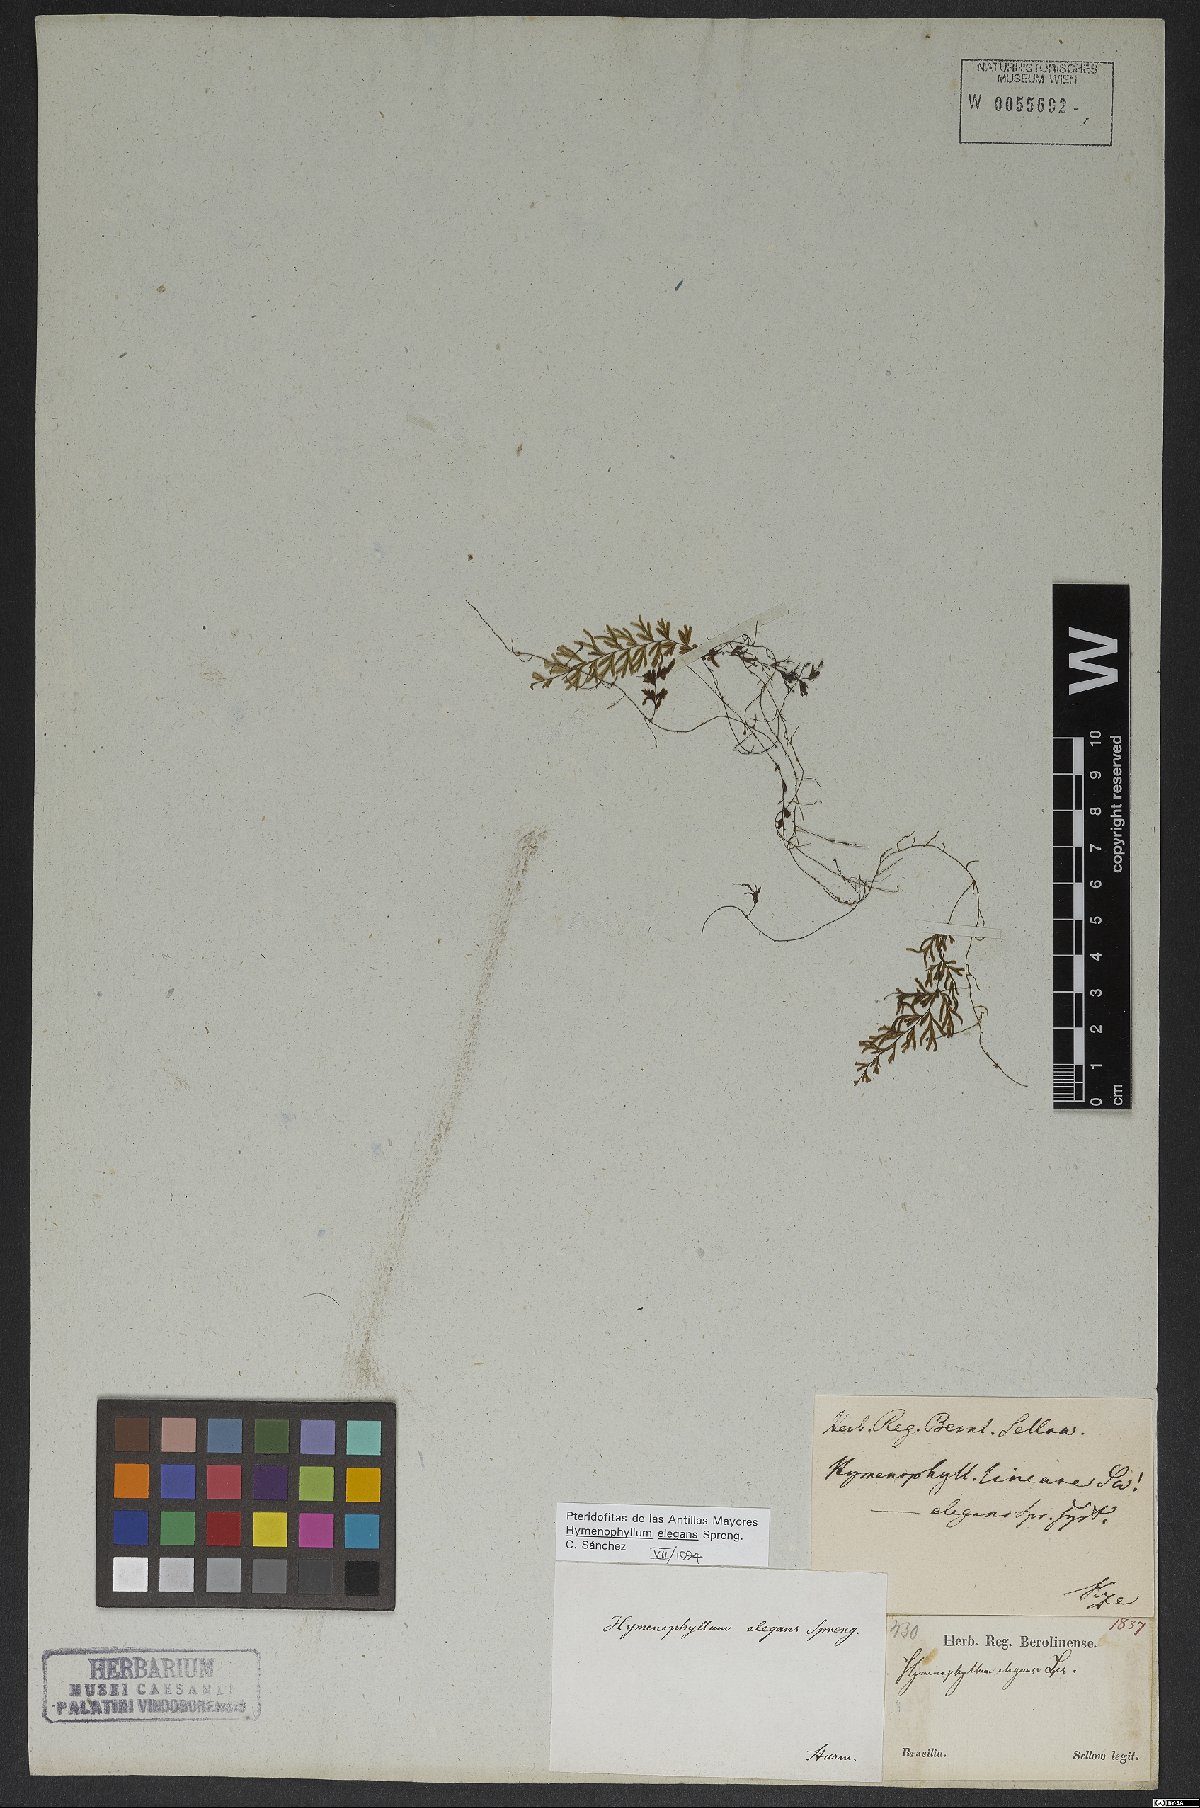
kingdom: Plantae
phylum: Tracheophyta
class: Polypodiopsida
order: Hymenophyllales
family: Hymenophyllaceae
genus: Hymenophyllum
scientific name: Hymenophyllum asplenioides
